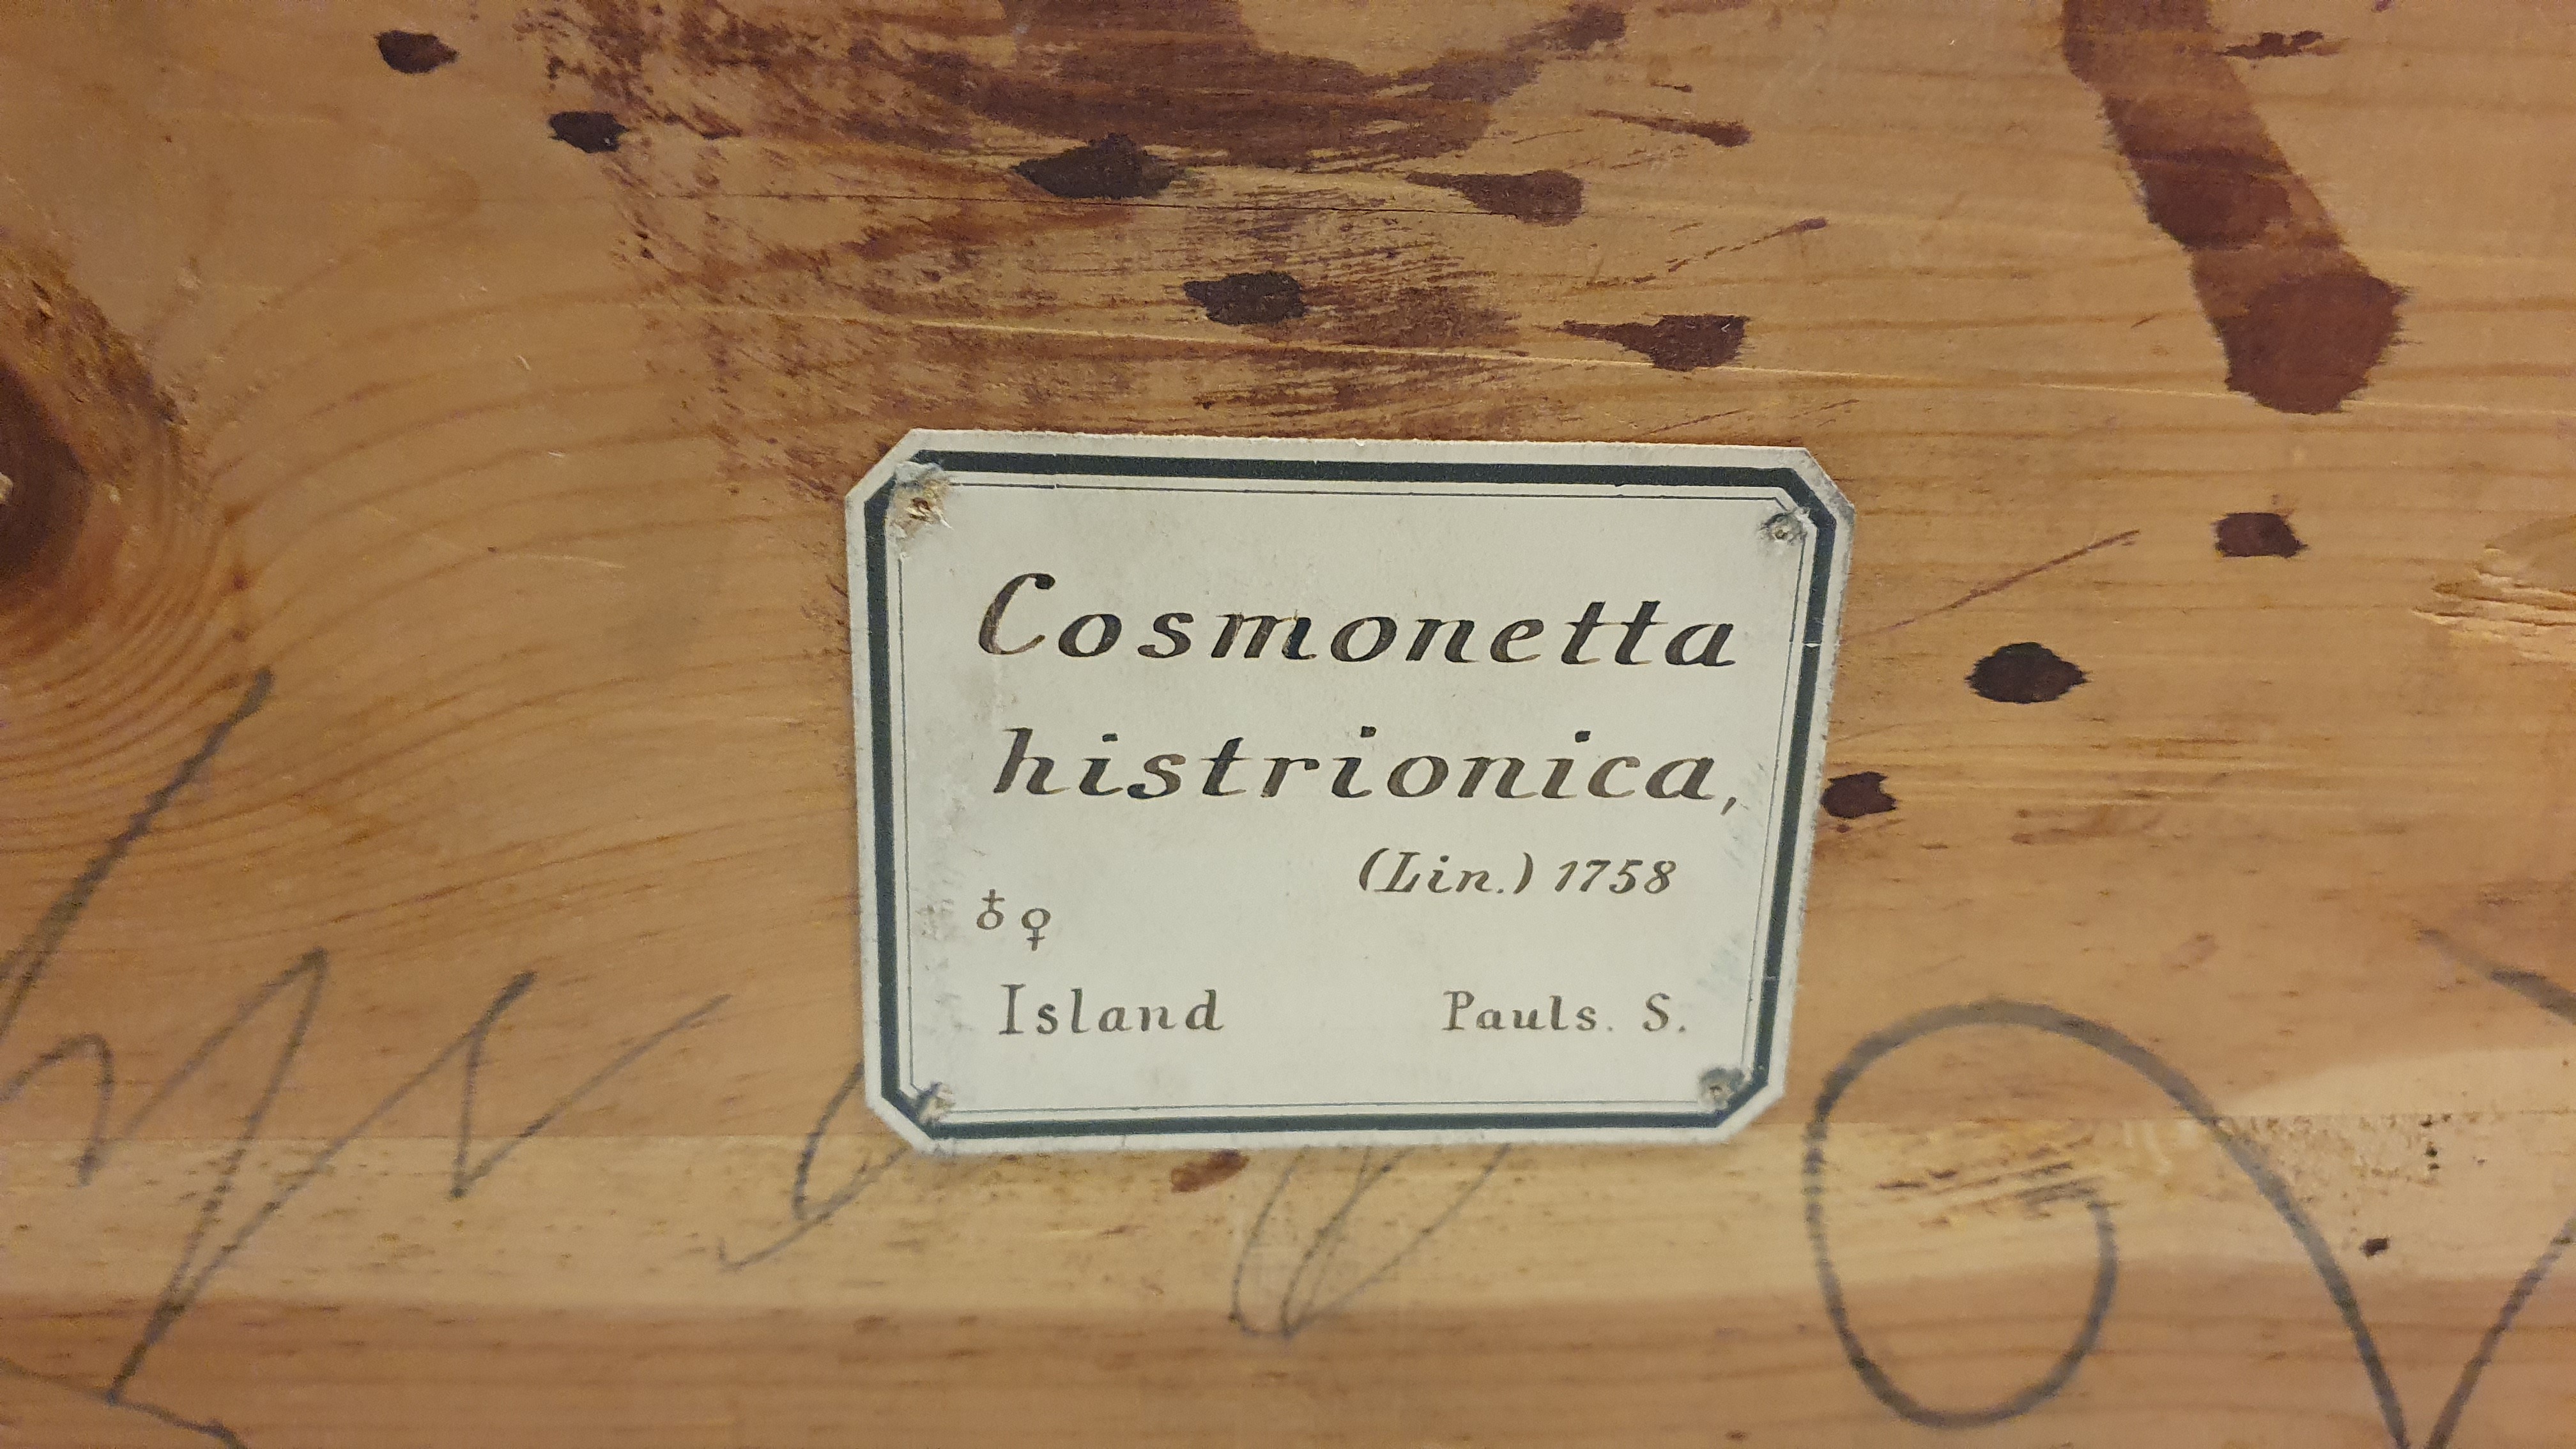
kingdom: Animalia
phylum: Chordata
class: Aves
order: Anseriformes
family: Anatidae
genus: Histrionicus
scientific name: Histrionicus histrionicus
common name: Harlequin duck
